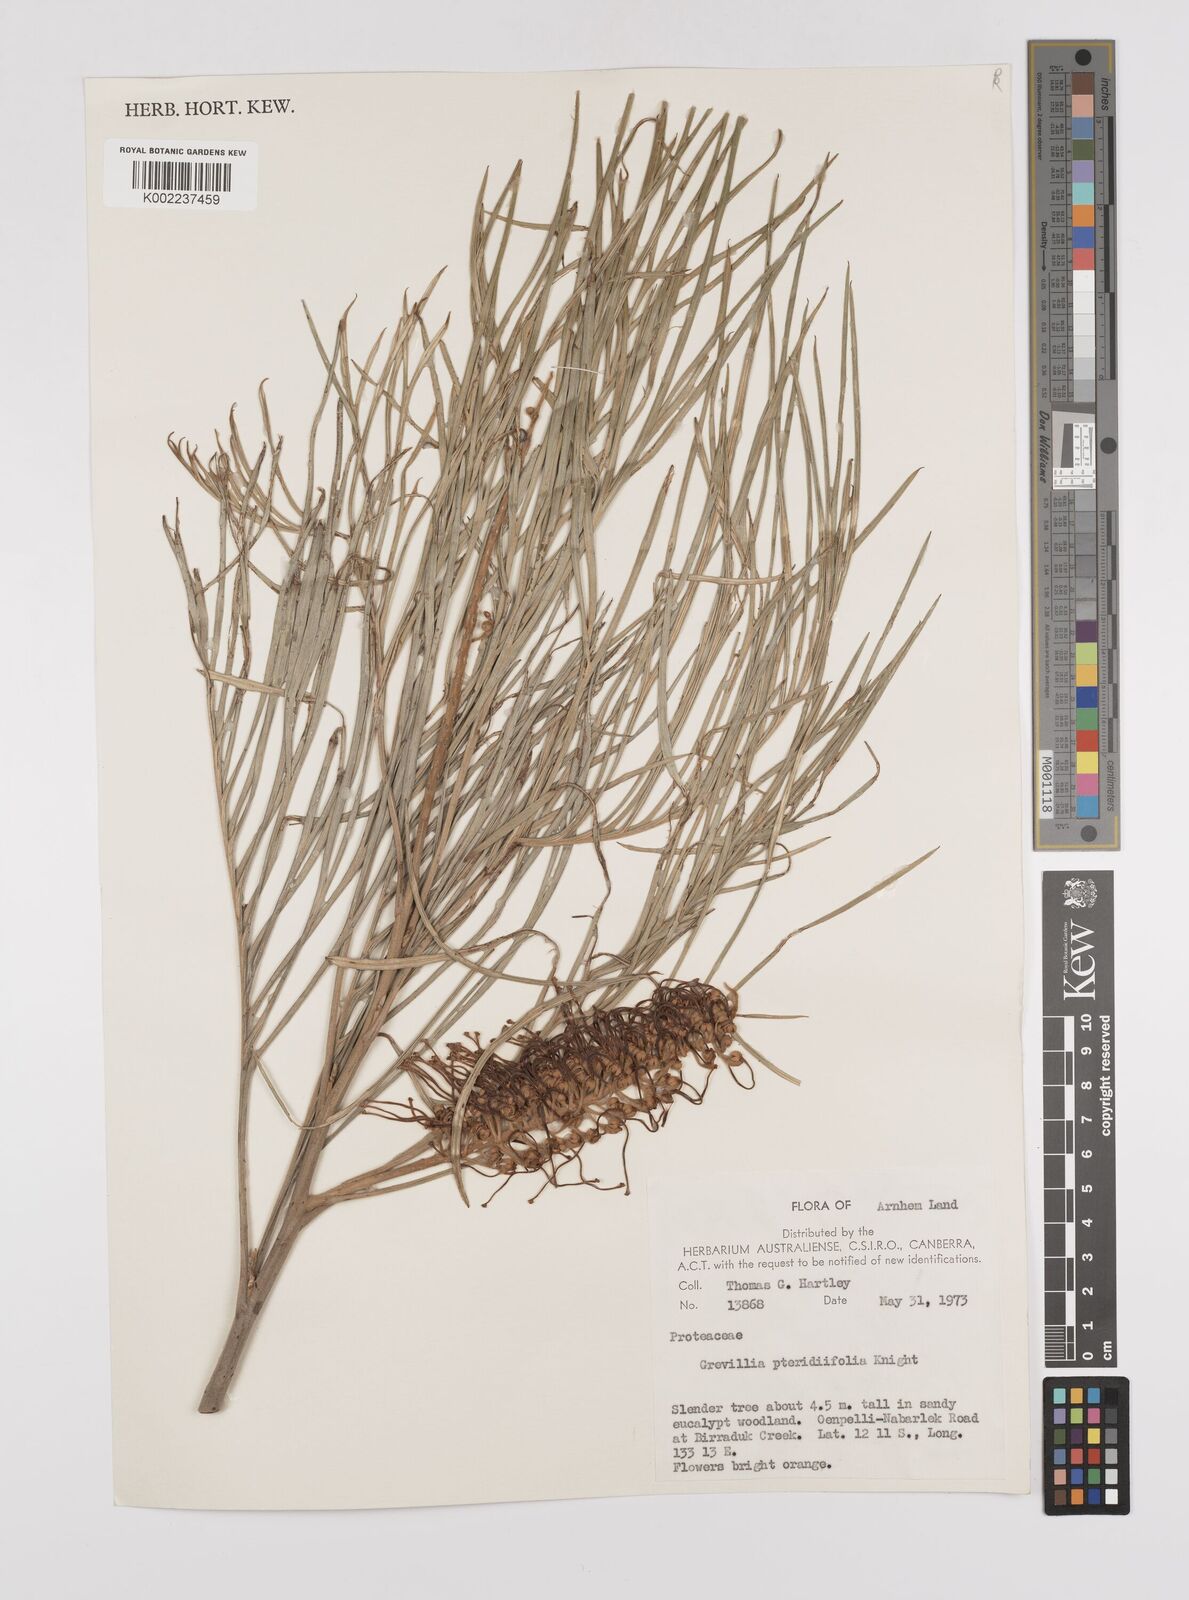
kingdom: Plantae
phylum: Tracheophyta
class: Magnoliopsida
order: Proteales
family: Proteaceae
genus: Grevillea
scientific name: Grevillea pteridifolia
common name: Golden grevillea
